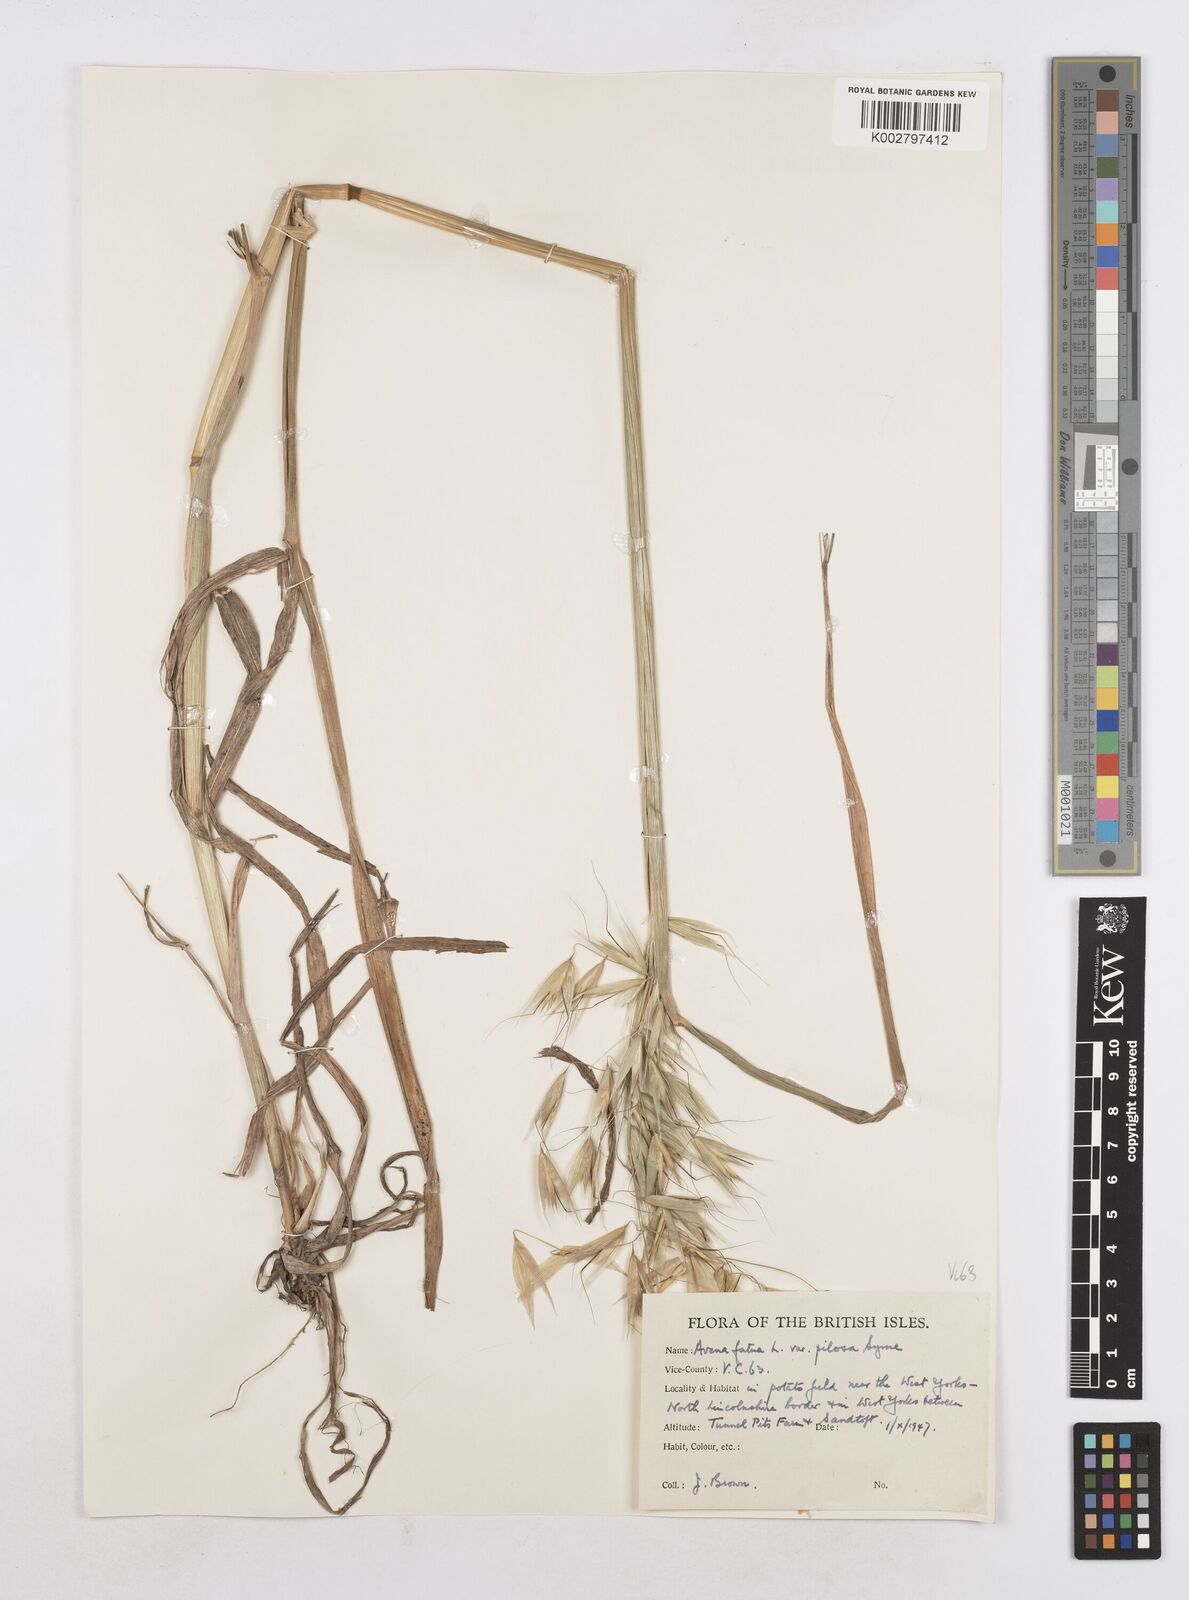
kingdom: Plantae
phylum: Tracheophyta
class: Liliopsida
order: Poales
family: Poaceae
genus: Avena
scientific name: Avena fatua
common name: Wild oat
